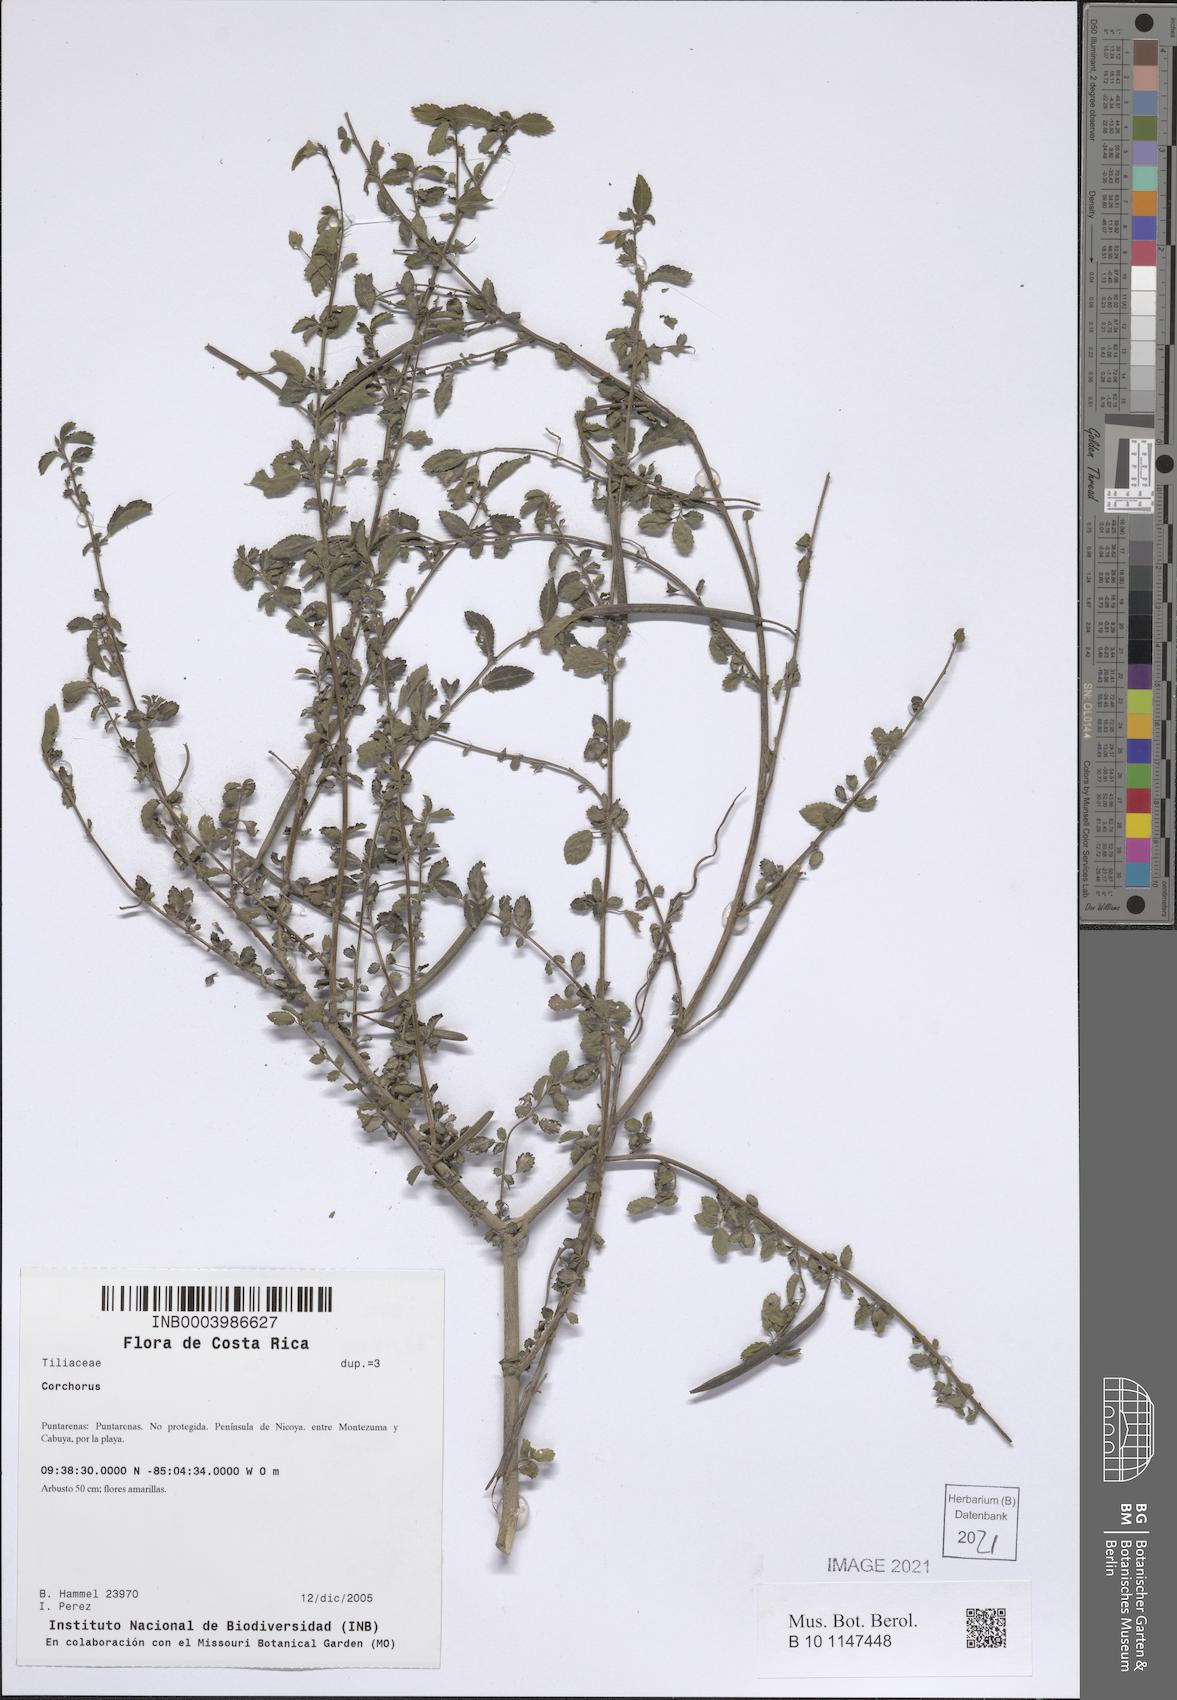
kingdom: Plantae
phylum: Tracheophyta
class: Magnoliopsida
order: Malvales
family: Malvaceae
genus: Corchorus
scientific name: Corchorus
